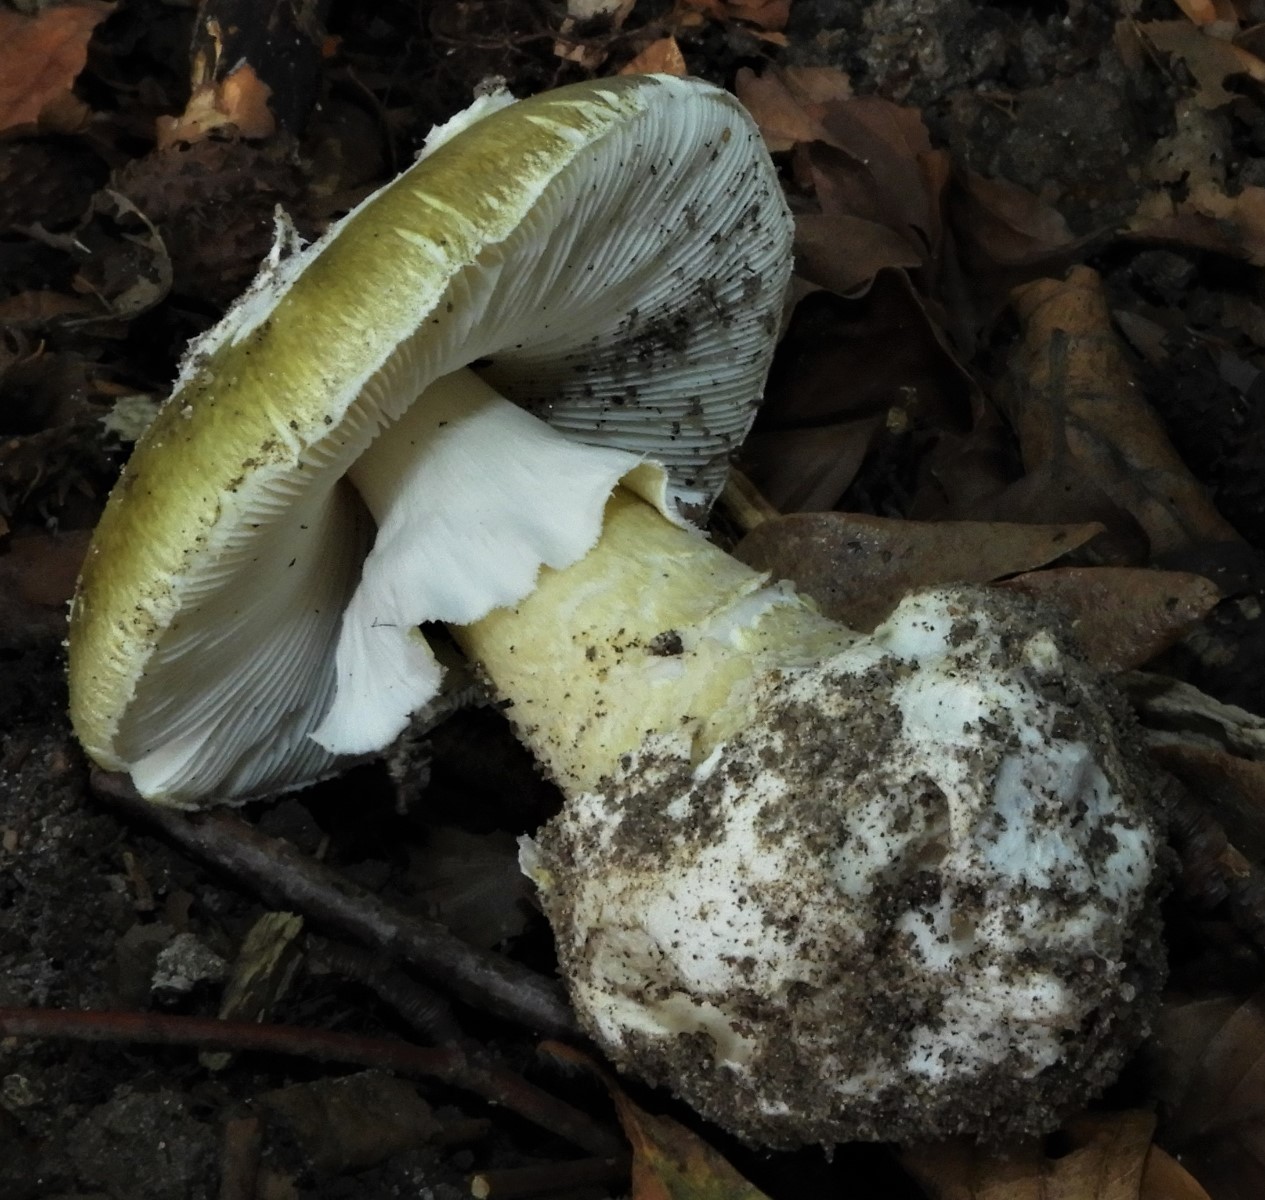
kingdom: Fungi
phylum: Basidiomycota
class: Agaricomycetes
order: Agaricales
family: Amanitaceae
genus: Amanita
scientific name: Amanita phalloides
